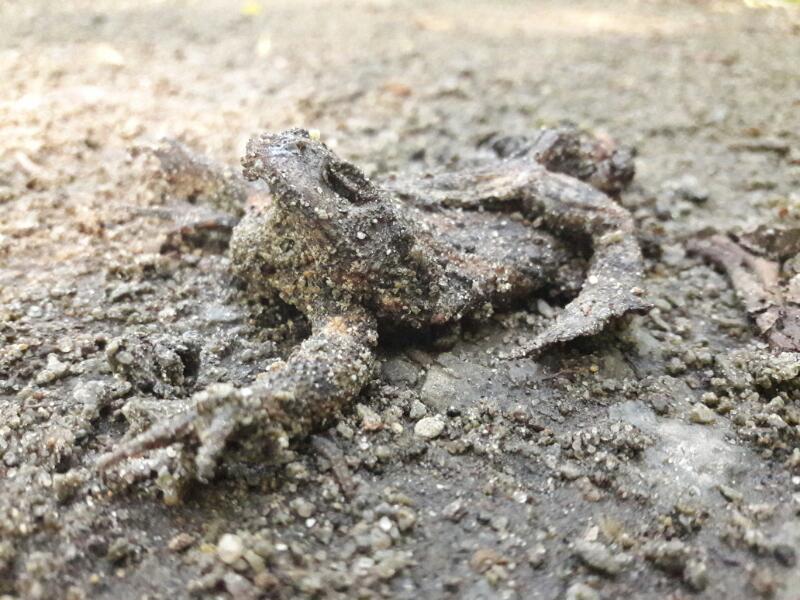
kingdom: Animalia
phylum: Chordata
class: Amphibia
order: Anura
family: Bufonidae
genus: Bufo
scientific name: Bufo bufo
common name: Common toad
